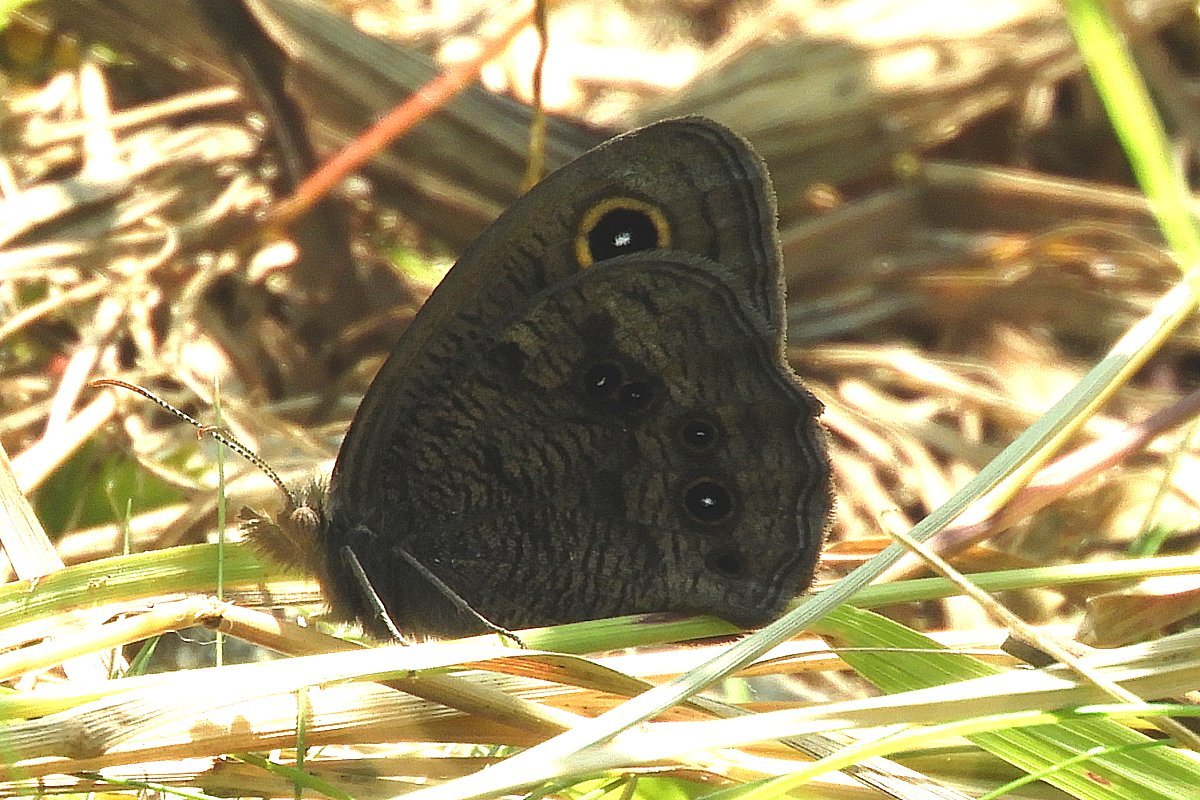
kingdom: Animalia
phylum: Arthropoda
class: Insecta
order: Lepidoptera
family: Nymphalidae
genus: Cercyonis
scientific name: Cercyonis pegala
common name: Common Wood-Nymph
